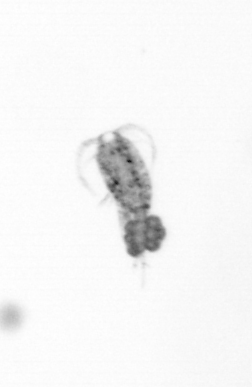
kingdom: Animalia
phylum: Arthropoda
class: Copepoda
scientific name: Copepoda
